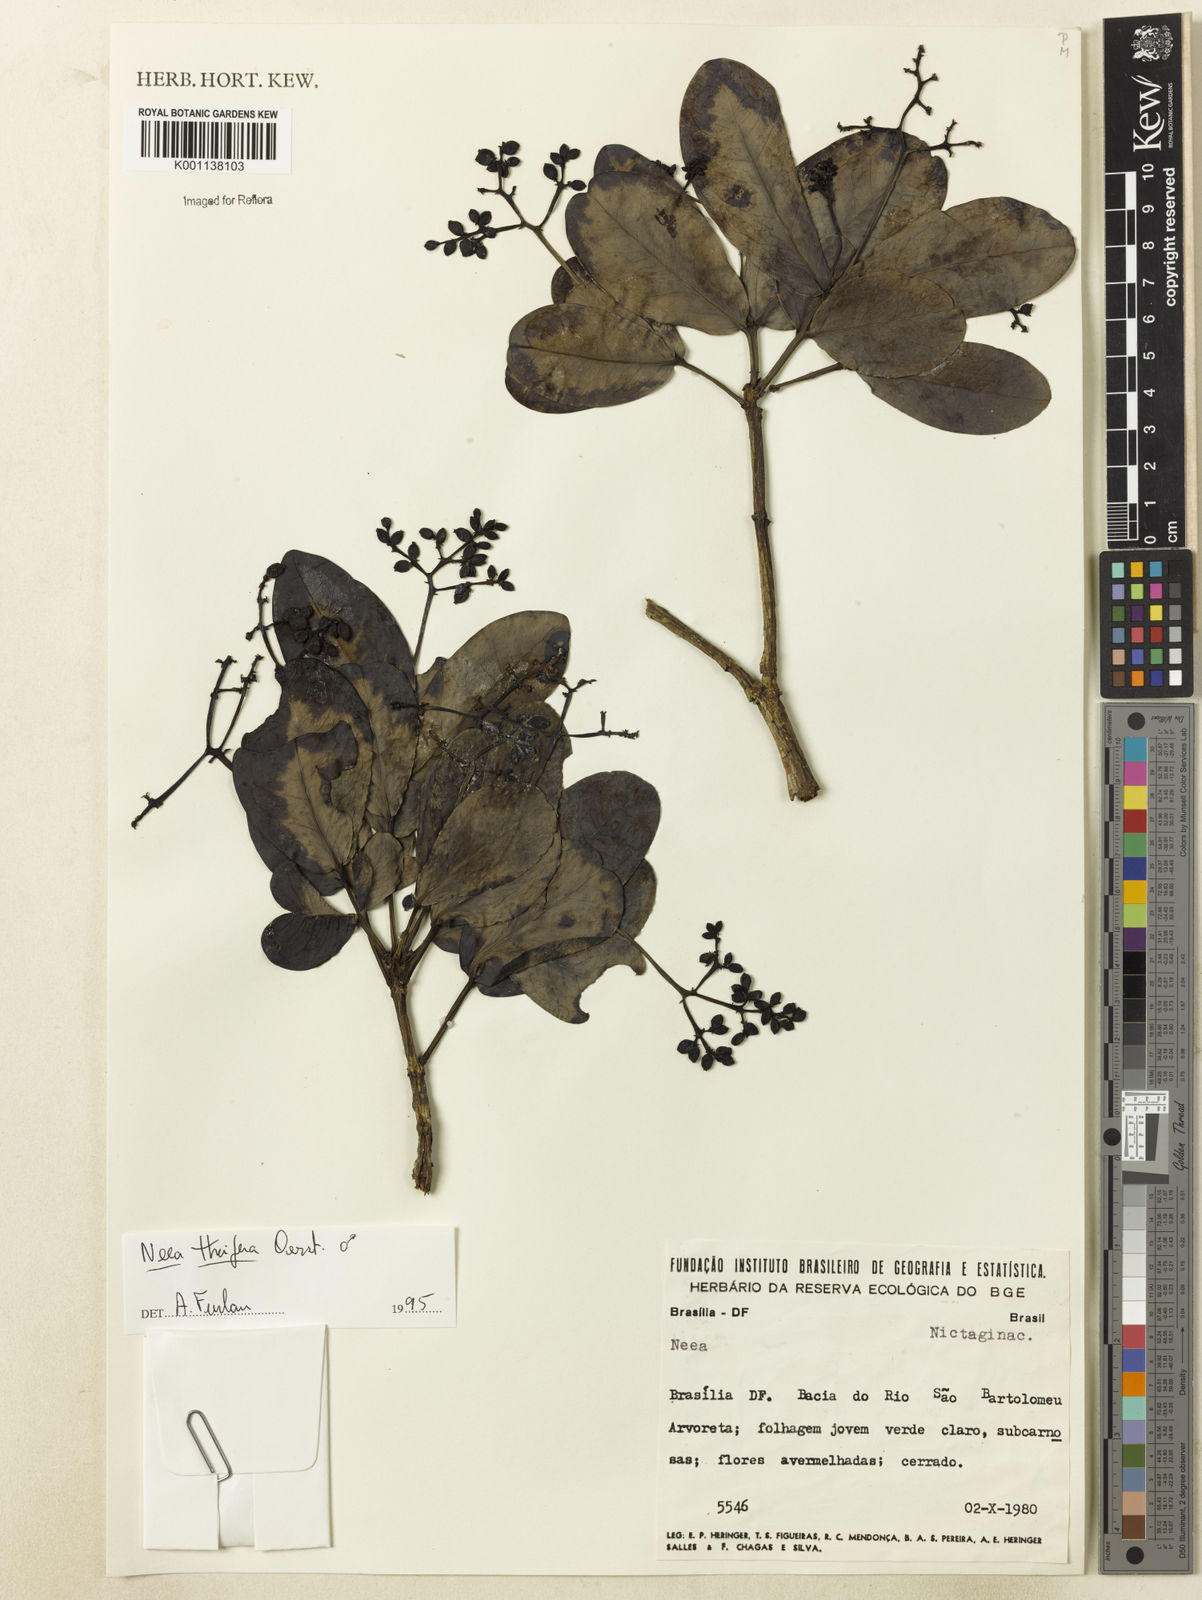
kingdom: Plantae
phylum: Tracheophyta
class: Magnoliopsida
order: Caryophyllales
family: Nyctaginaceae
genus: Neea
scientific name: Neea
